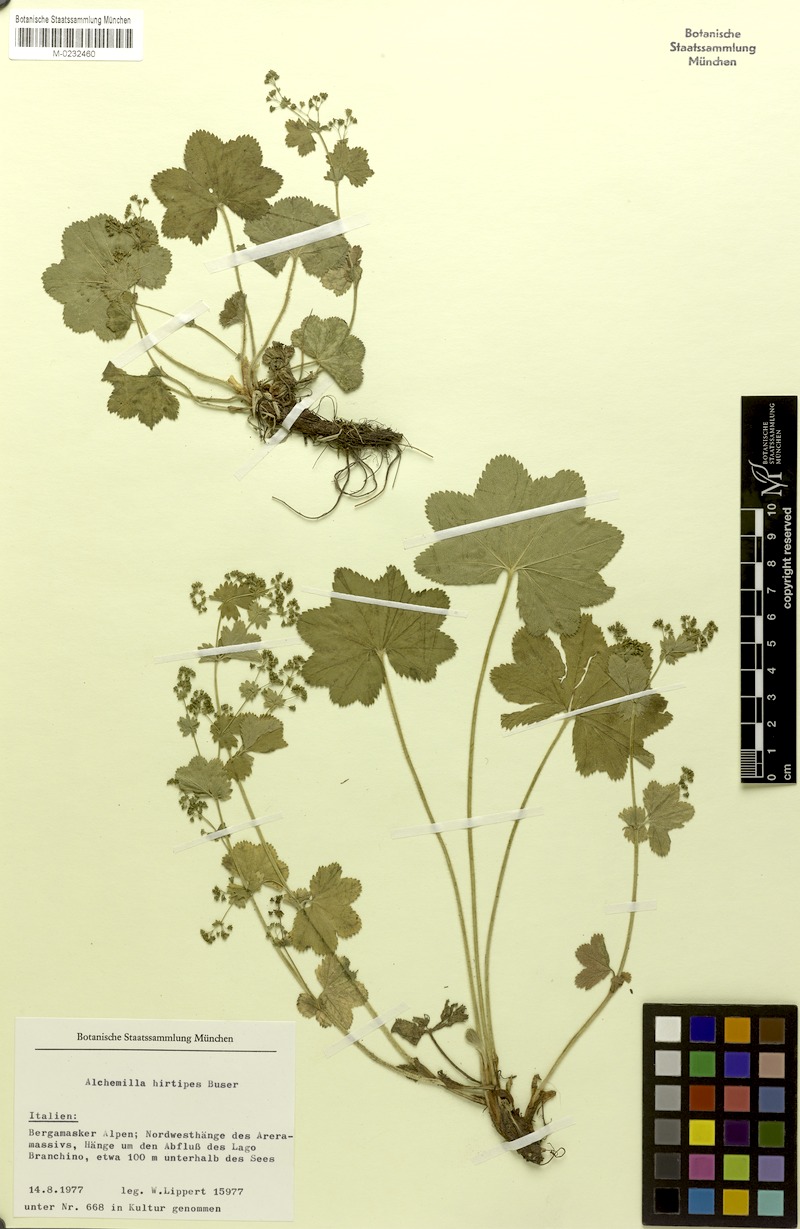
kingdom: Plantae
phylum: Tracheophyta
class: Magnoliopsida
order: Rosales
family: Rosaceae
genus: Alchemilla
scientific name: Alchemilla hirtipes
